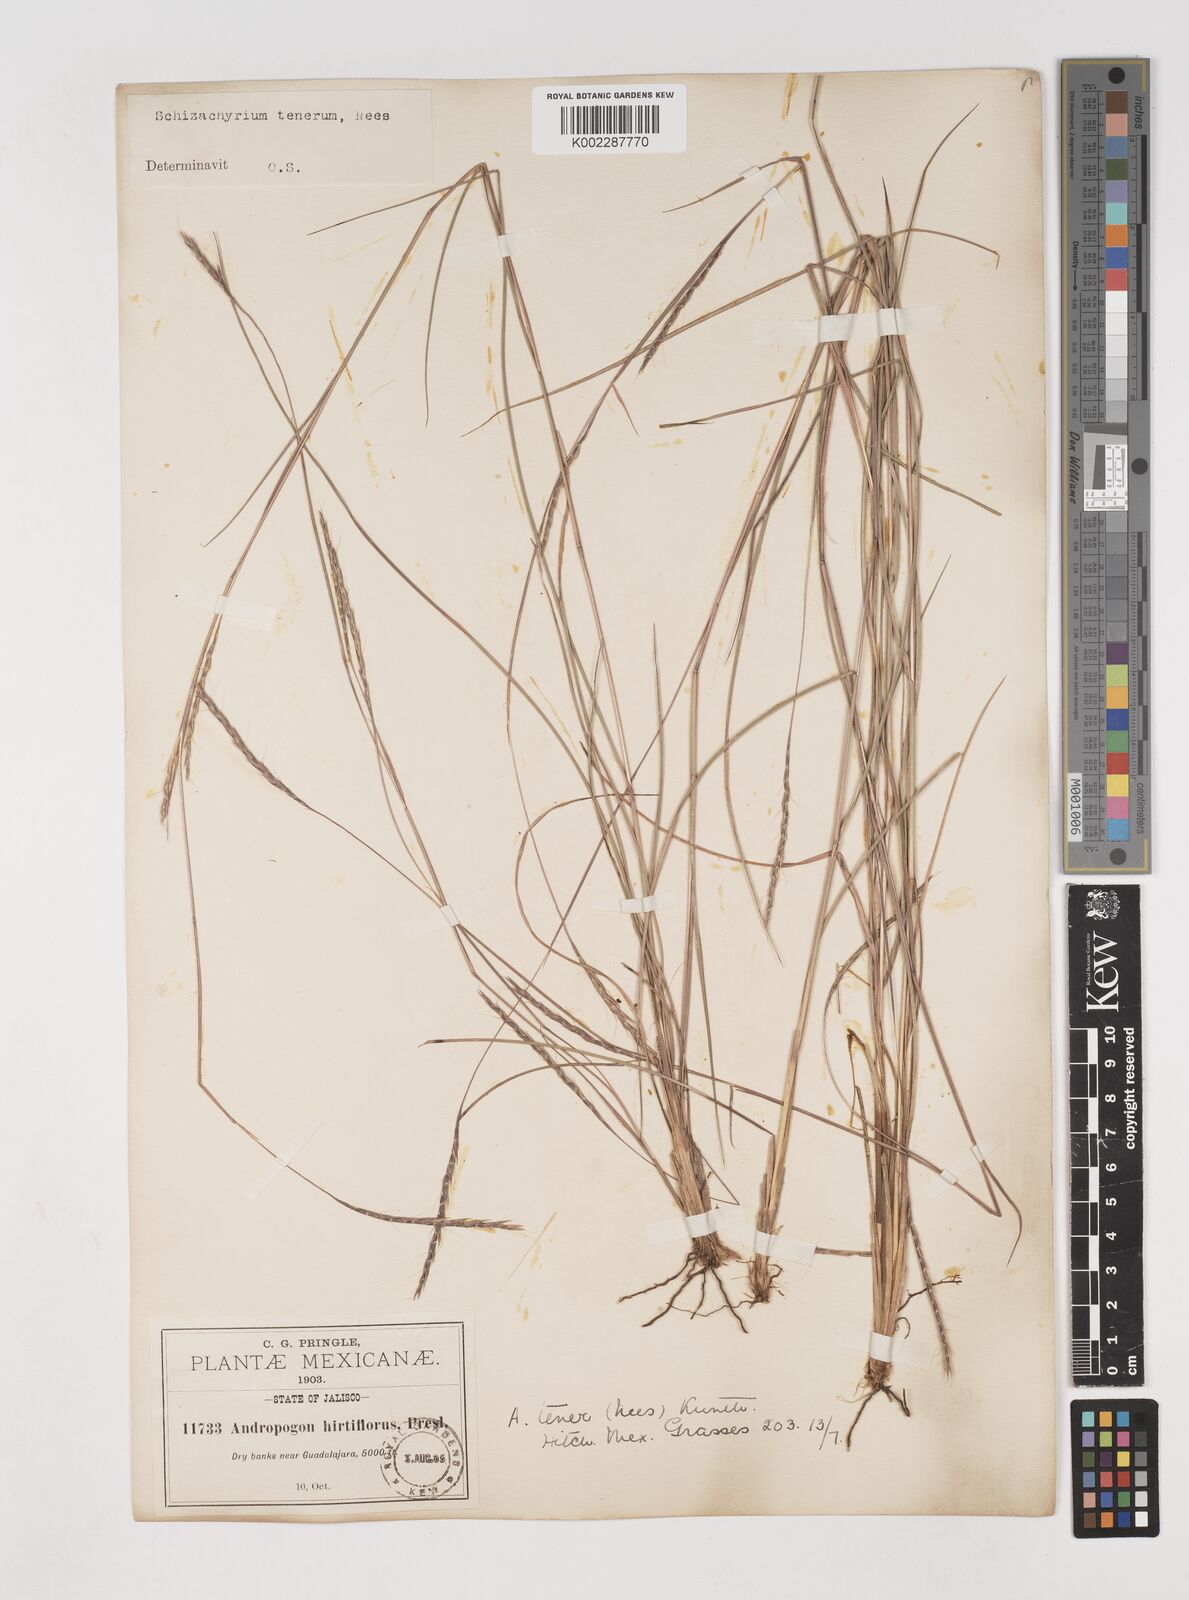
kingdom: Plantae
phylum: Tracheophyta
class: Liliopsida
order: Poales
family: Poaceae
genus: Andropogon
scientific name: Andropogon tener
